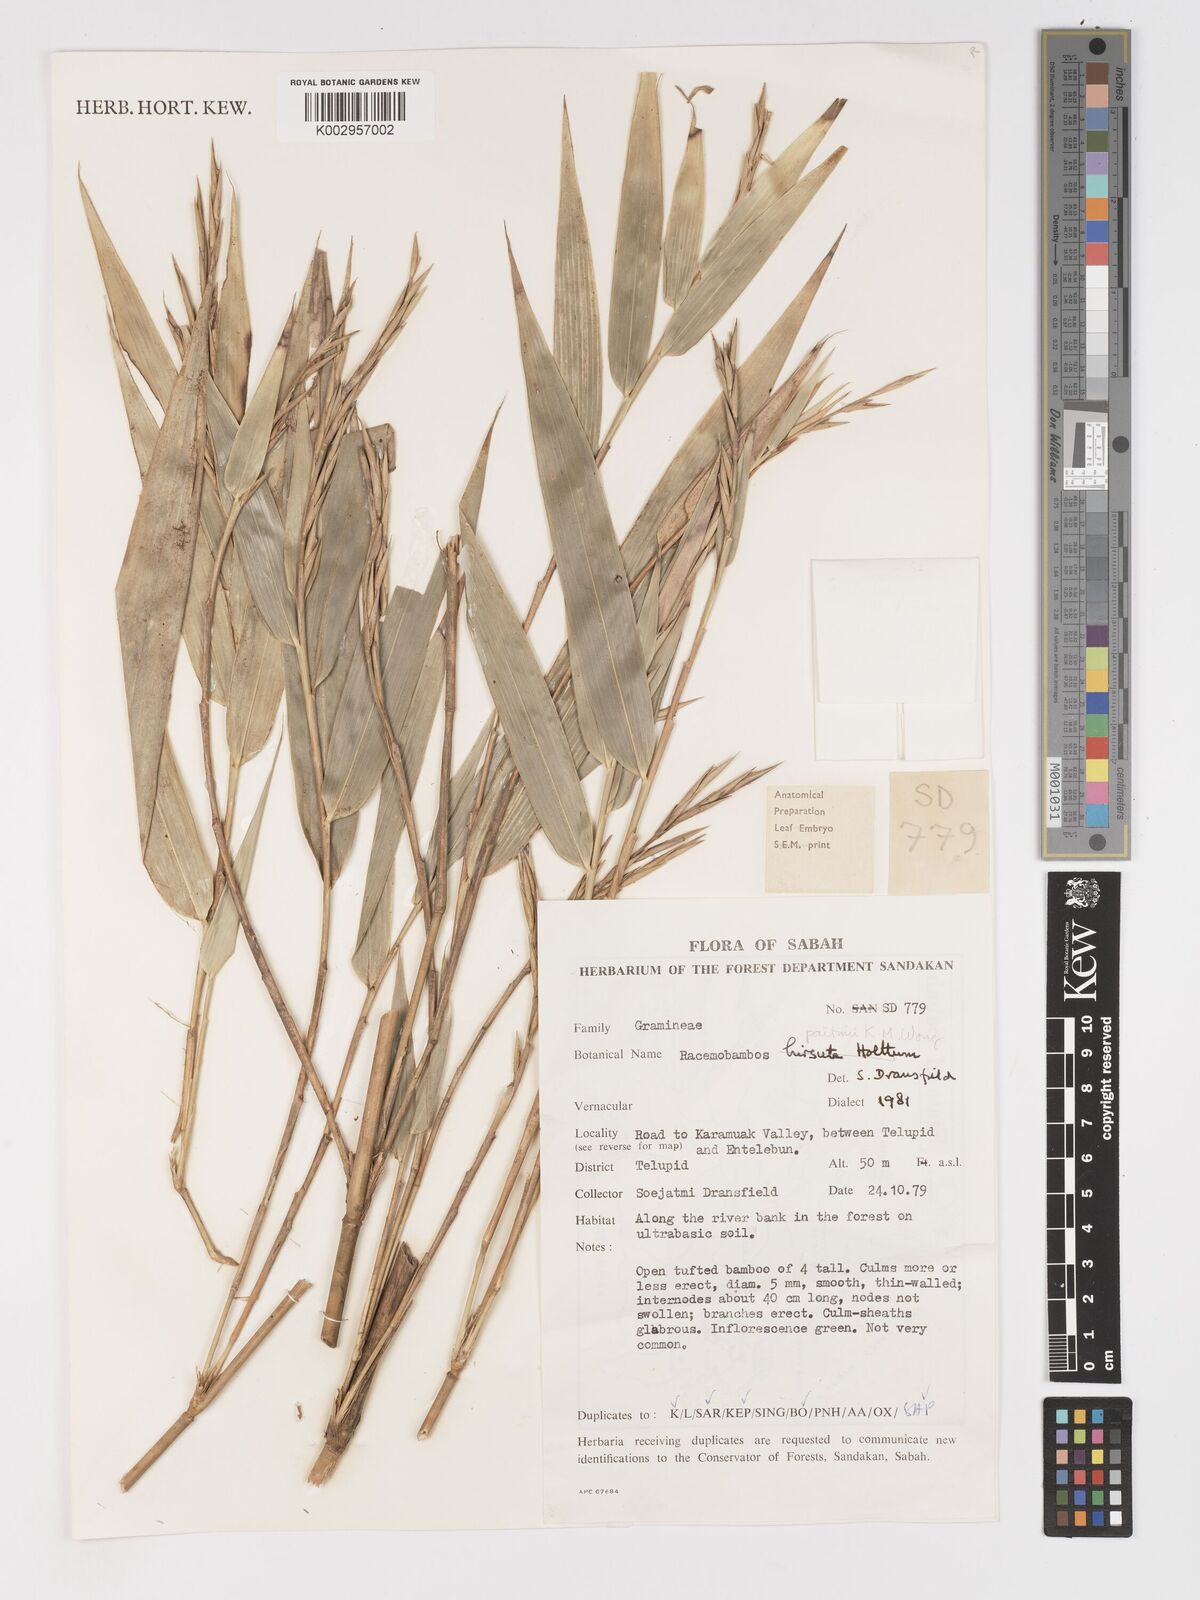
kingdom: Plantae
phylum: Tracheophyta
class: Liliopsida
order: Poales
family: Poaceae
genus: Racemobambos
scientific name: Racemobambos hirsuta
